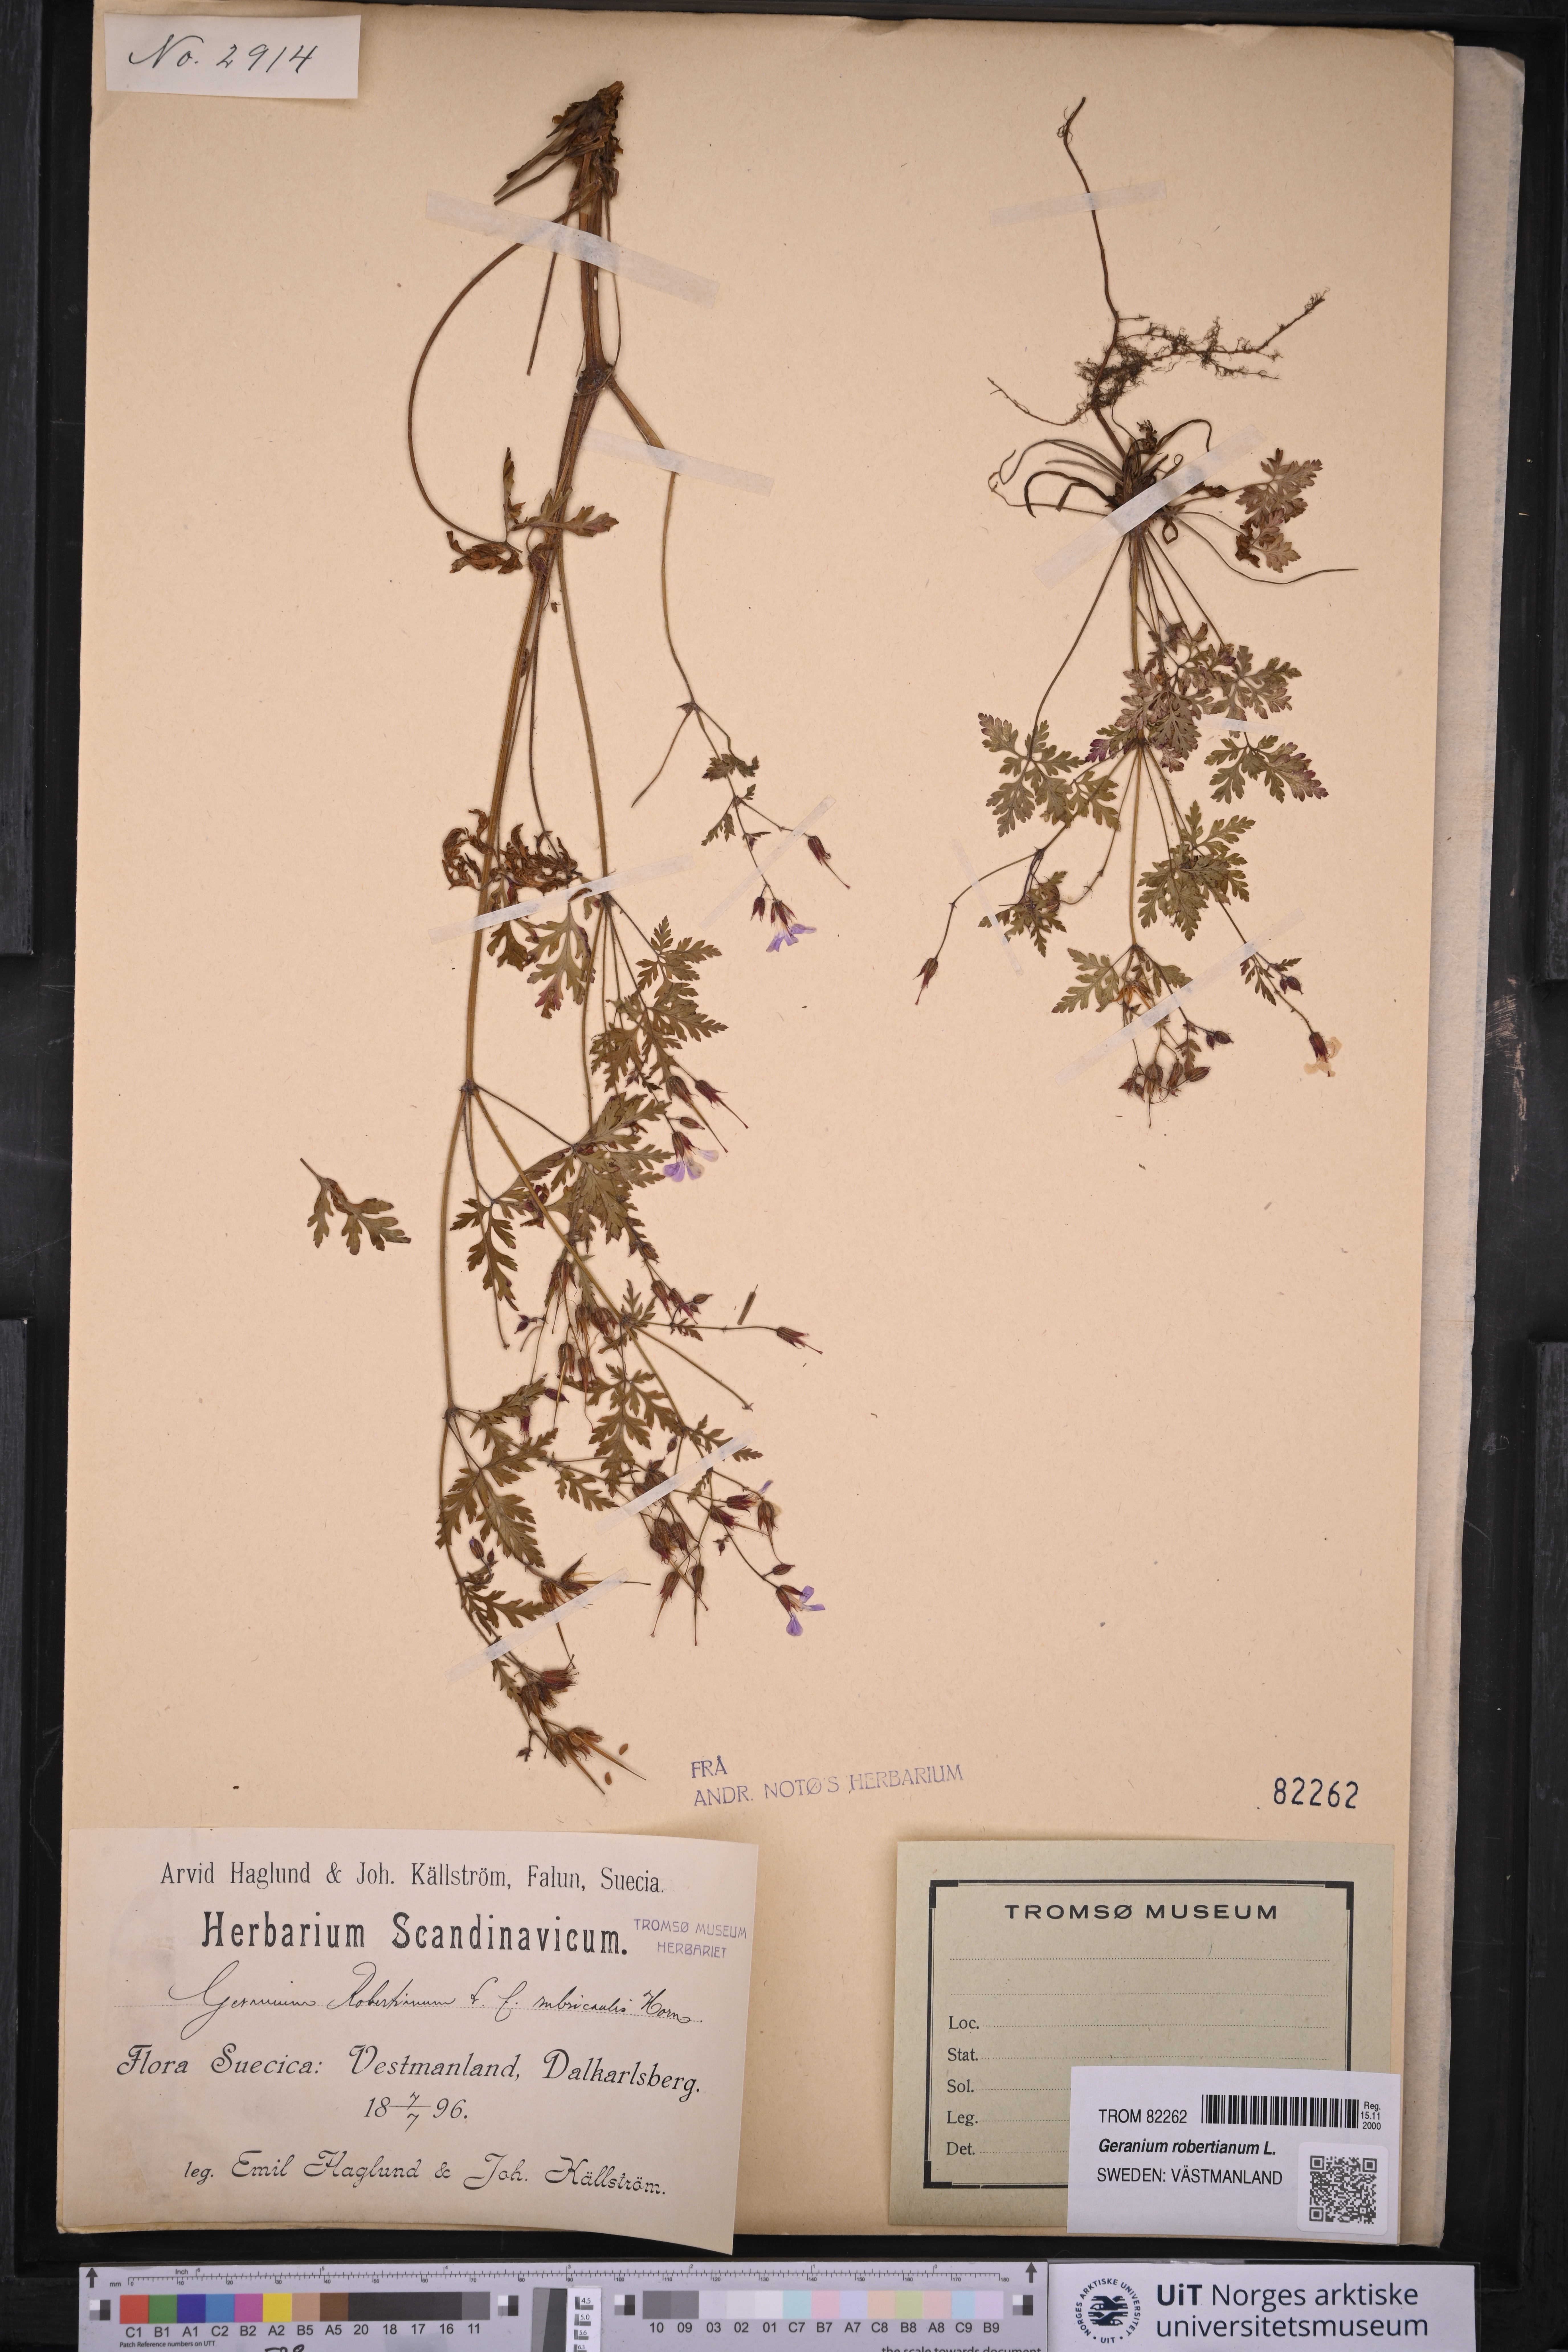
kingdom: Plantae
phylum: Tracheophyta
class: Magnoliopsida
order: Geraniales
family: Geraniaceae
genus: Geranium
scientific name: Geranium robertianum
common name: Herb-robert
